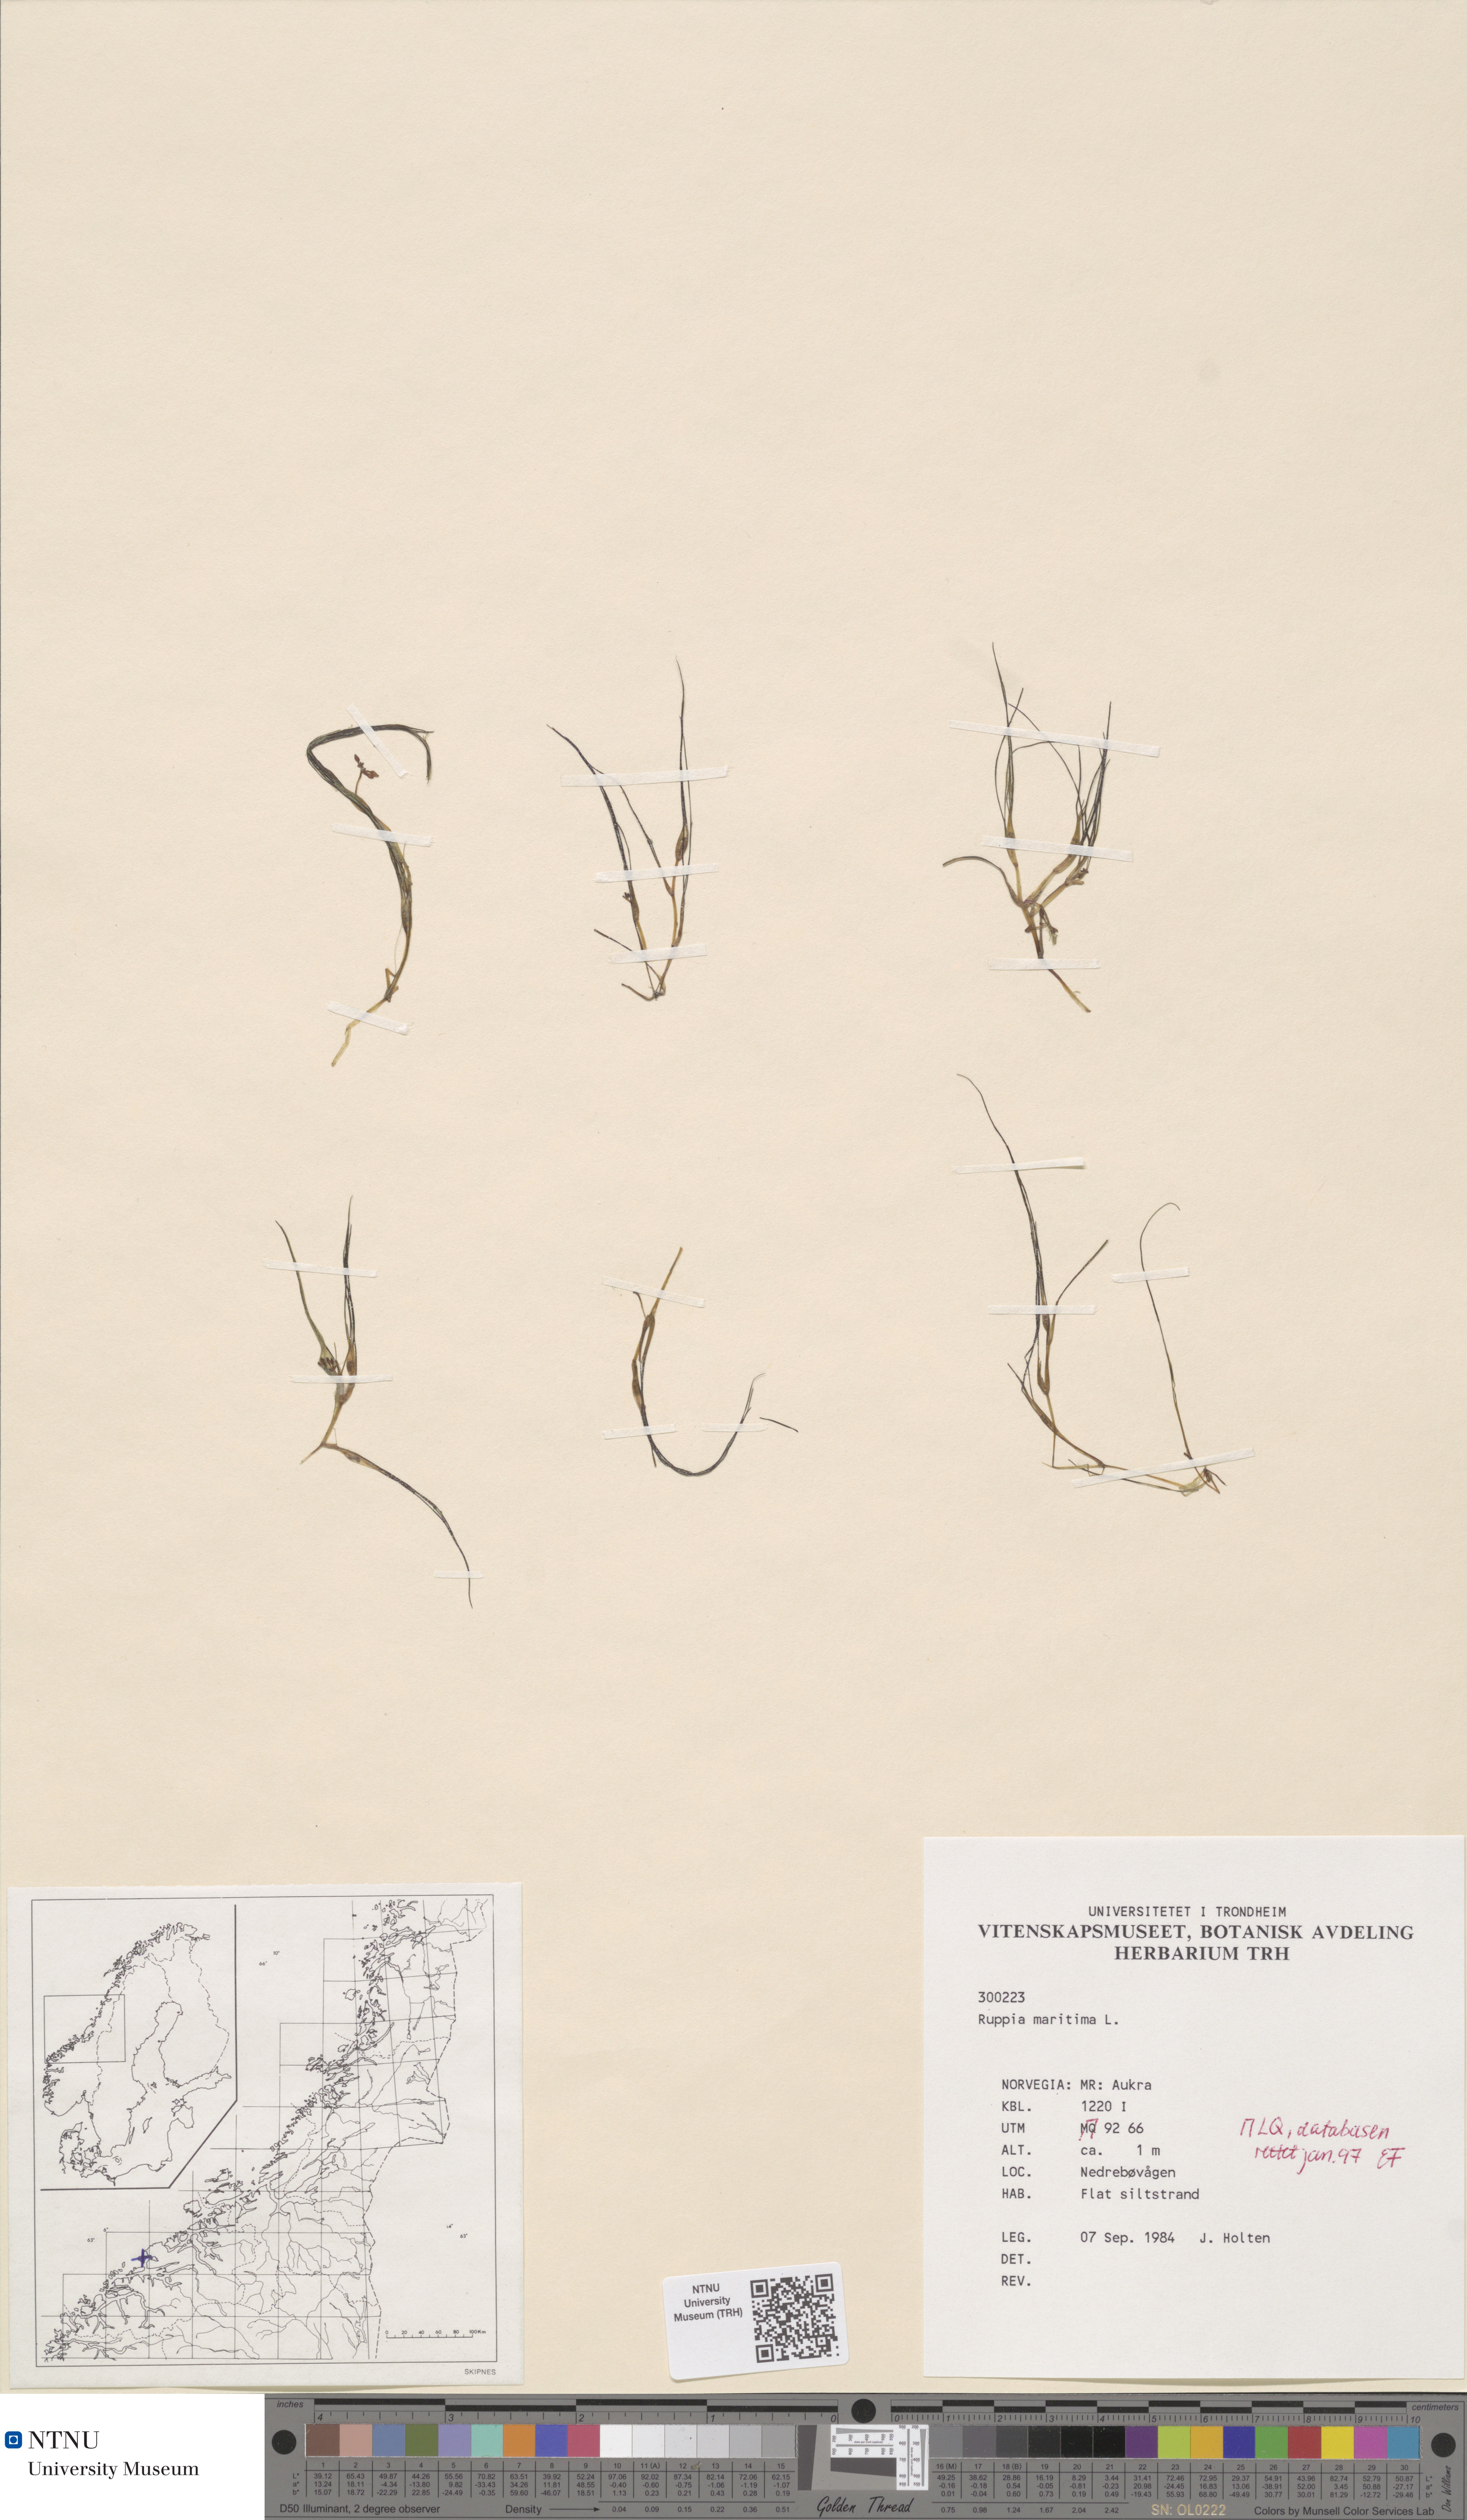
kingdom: Plantae
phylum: Tracheophyta
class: Liliopsida
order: Alismatales
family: Ruppiaceae
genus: Ruppia
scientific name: Ruppia maritima
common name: Beaked tasselweed
